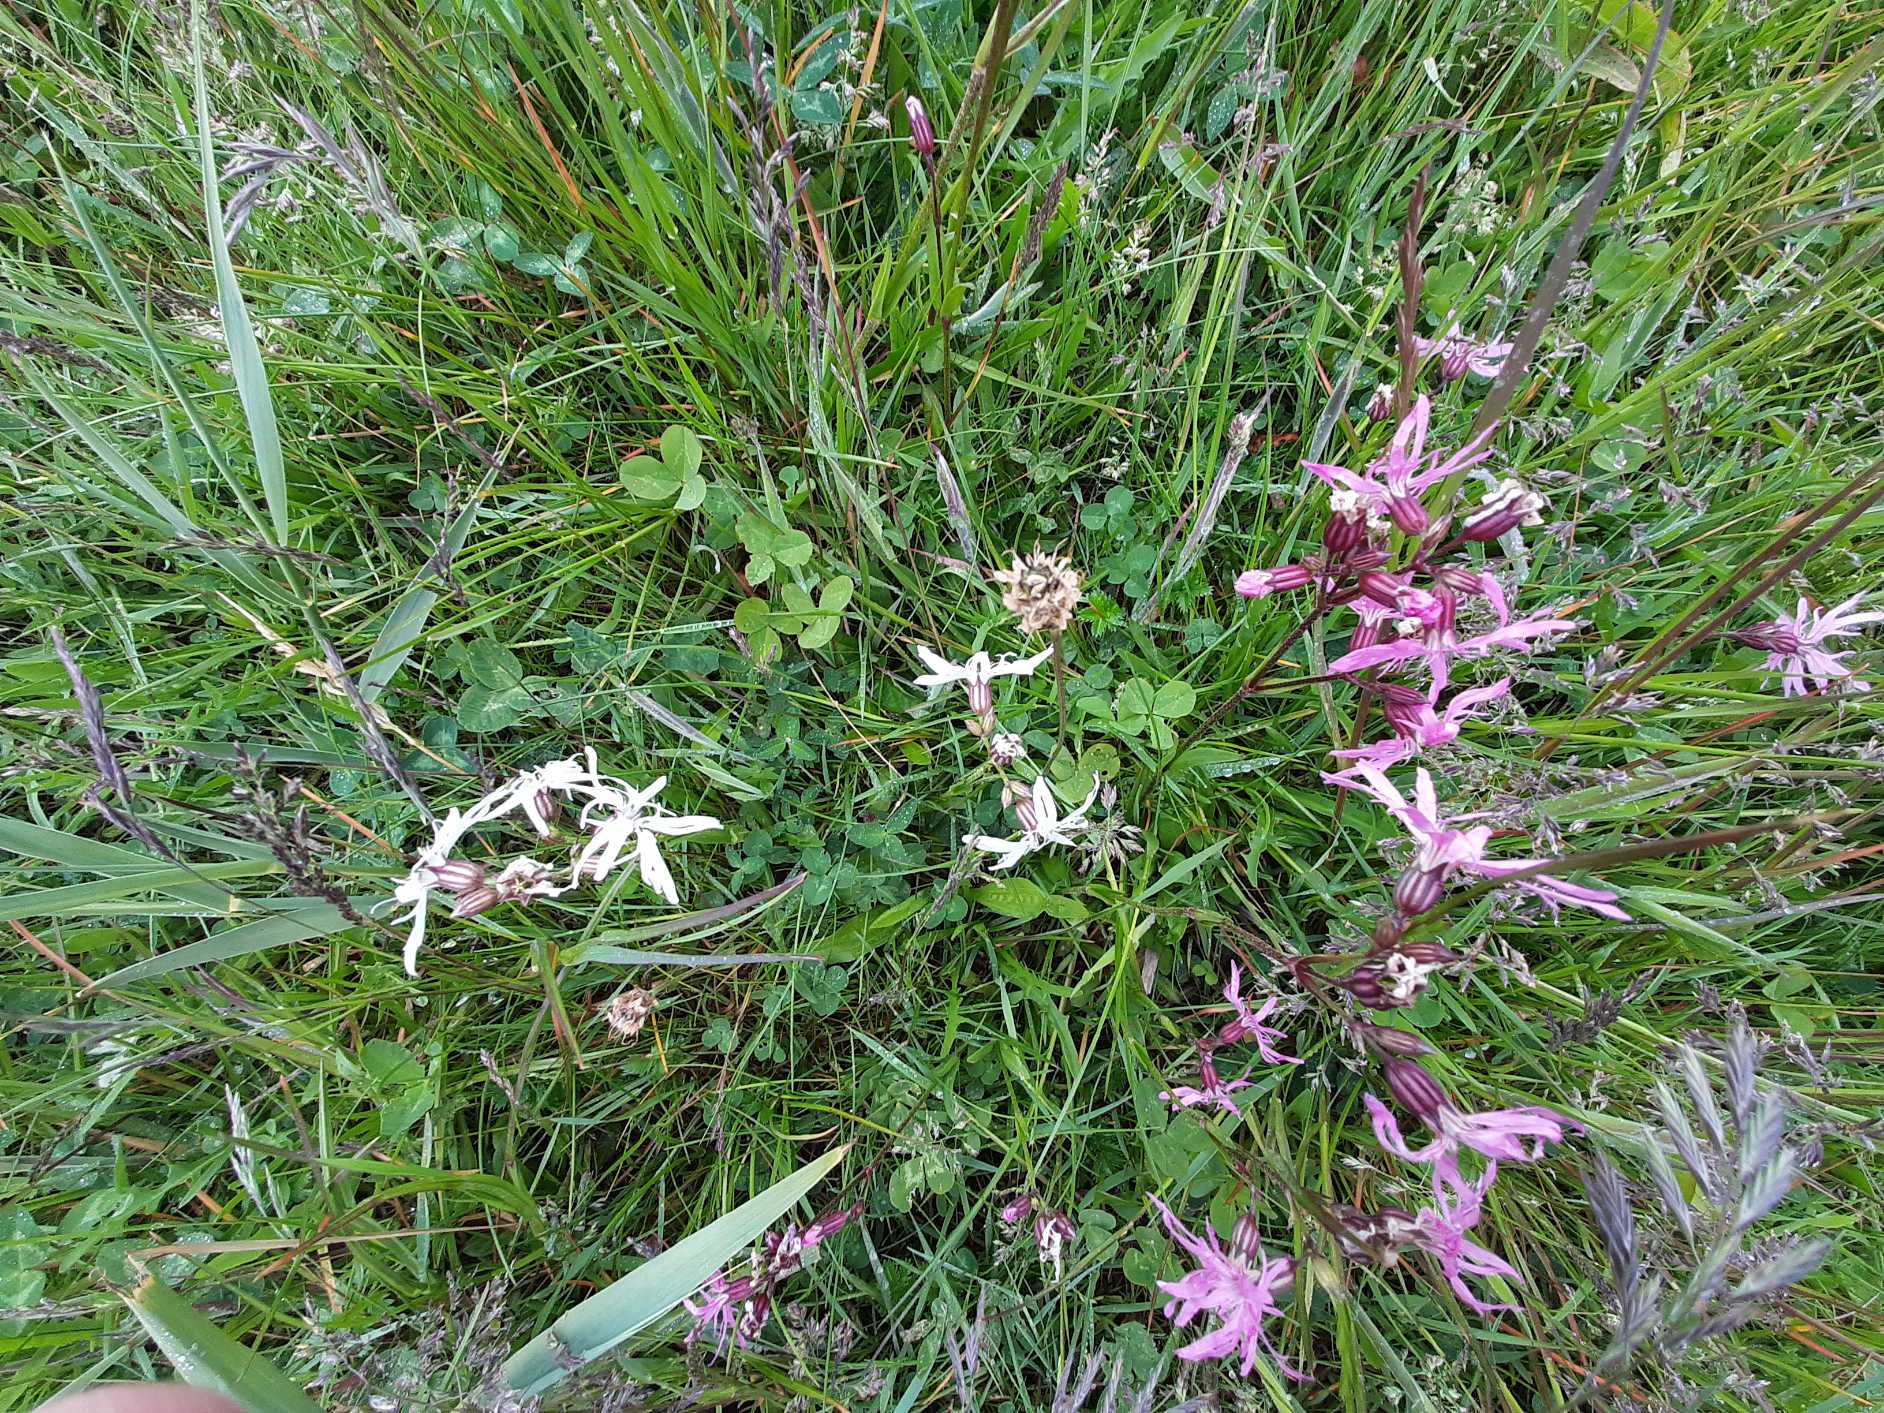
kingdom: Plantae
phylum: Tracheophyta
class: Magnoliopsida
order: Caryophyllales
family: Caryophyllaceae
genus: Silene
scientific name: Silene flos-cuculi
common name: Trævlekrone
